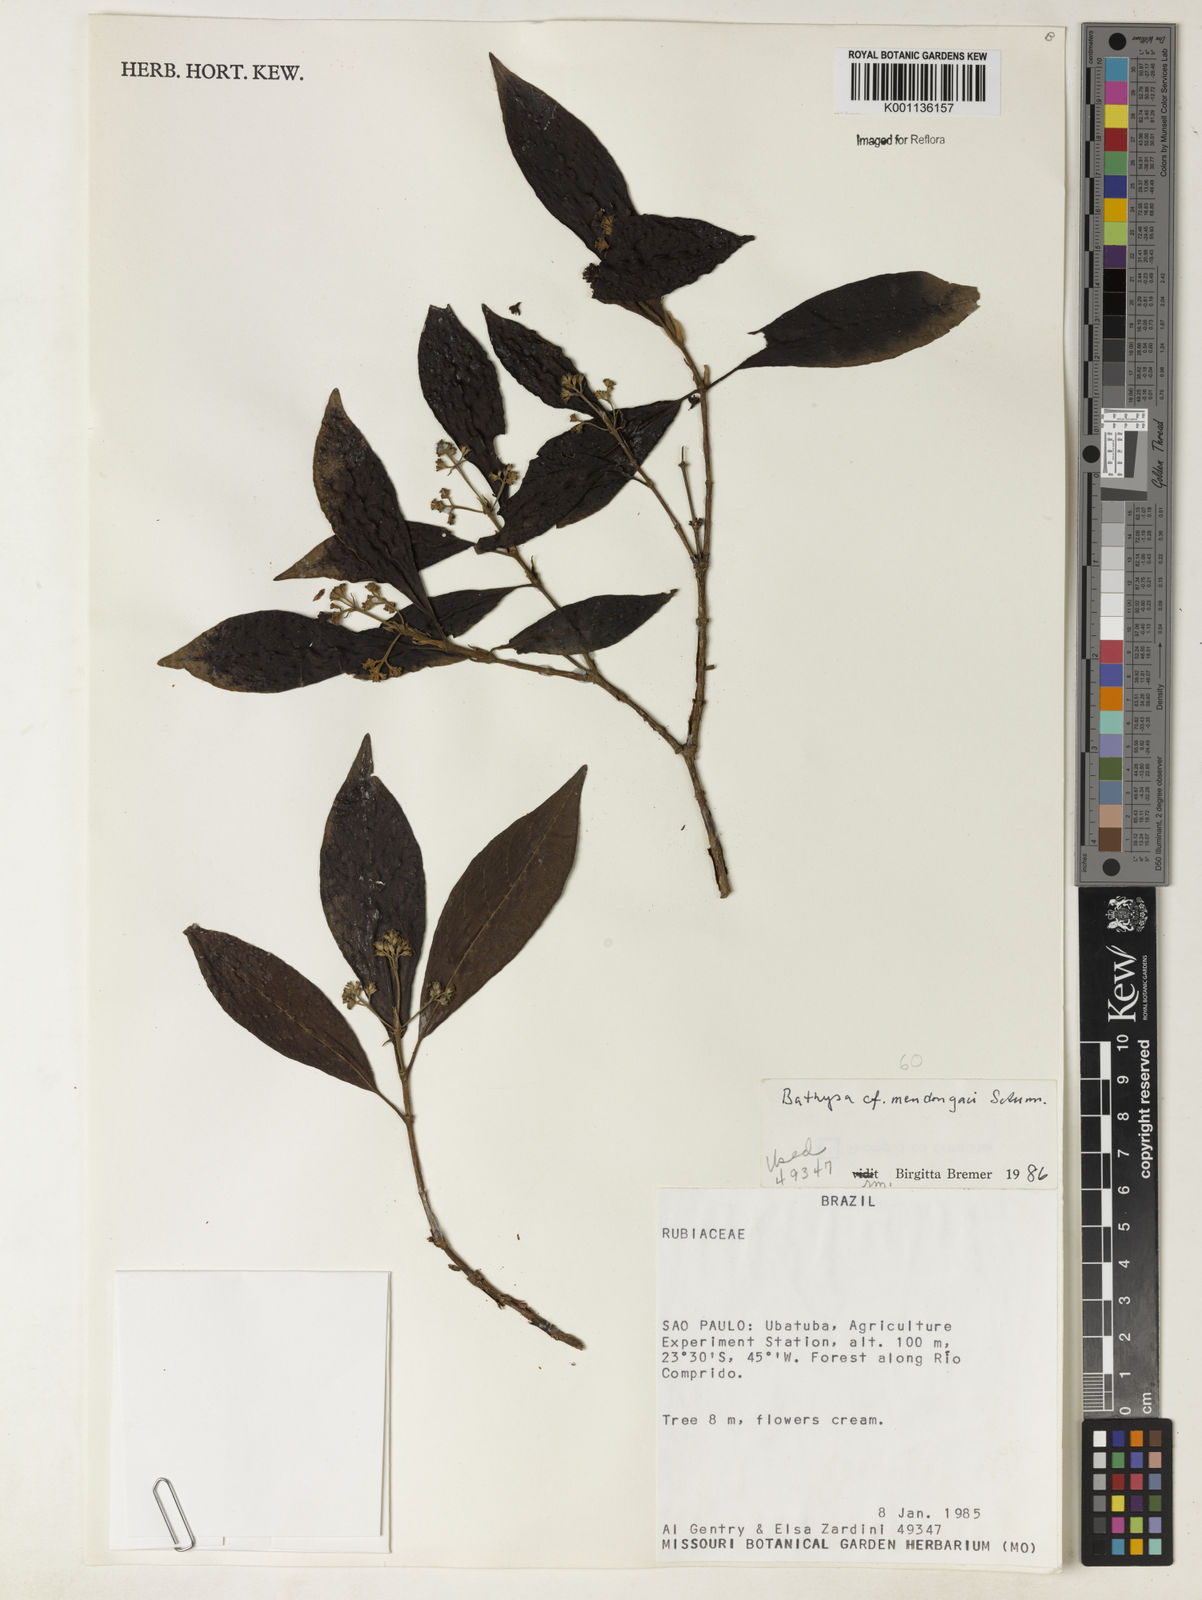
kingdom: Plantae
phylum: Tracheophyta
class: Magnoliopsida
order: Gentianales
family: Rubiaceae
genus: Bathysa
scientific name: Bathysa
